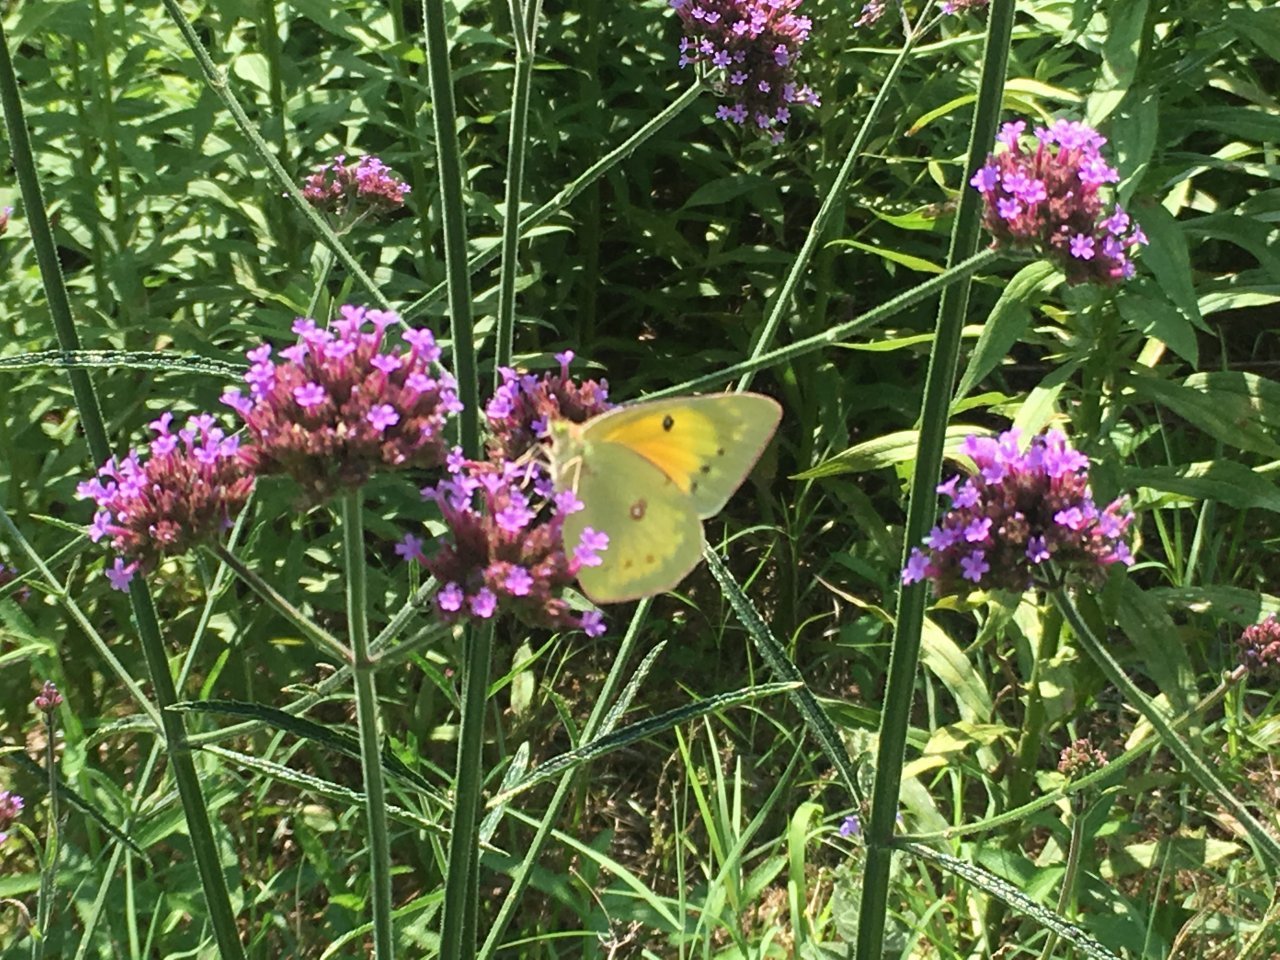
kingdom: Animalia
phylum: Arthropoda
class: Insecta
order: Lepidoptera
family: Pieridae
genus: Colias
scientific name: Colias eurytheme
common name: Orange Sulphur
